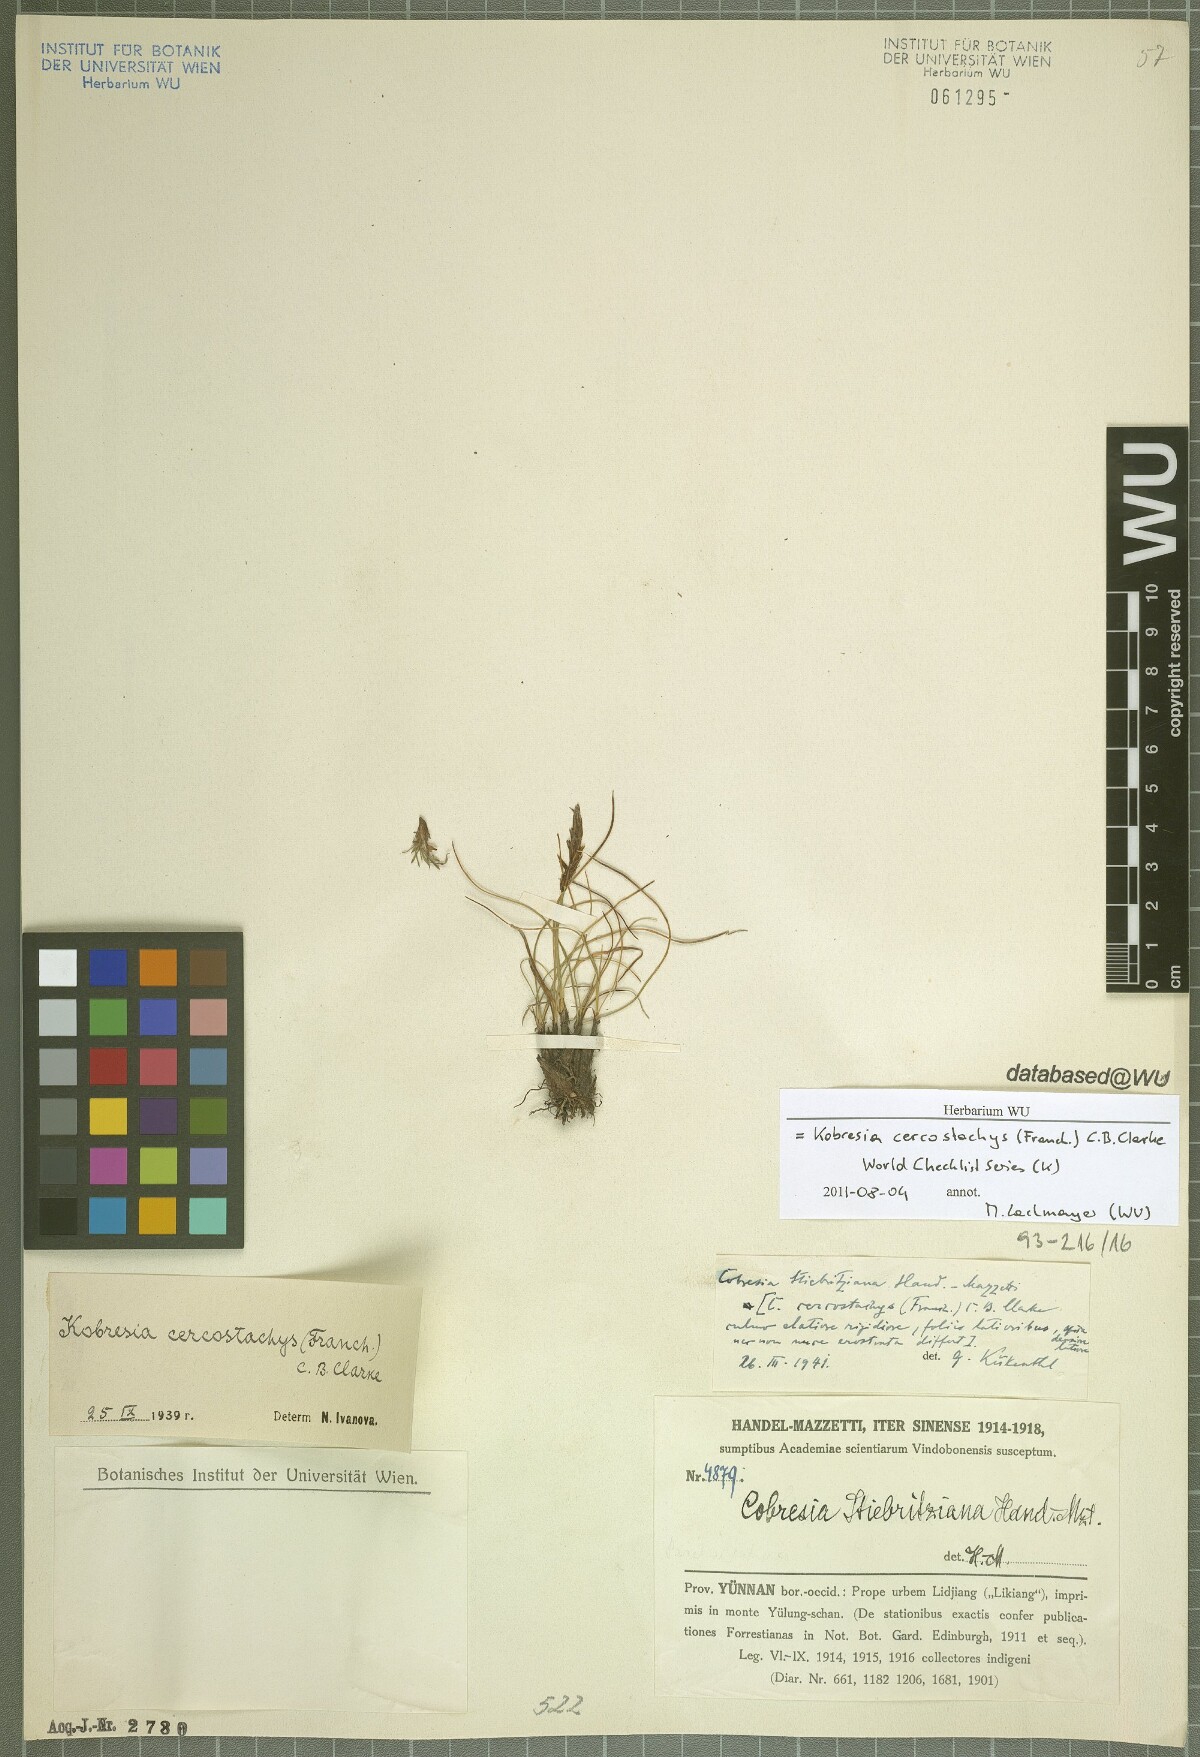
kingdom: Plantae
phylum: Tracheophyta
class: Liliopsida
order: Poales
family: Cyperaceae
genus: Carex
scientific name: Carex cercostachys
